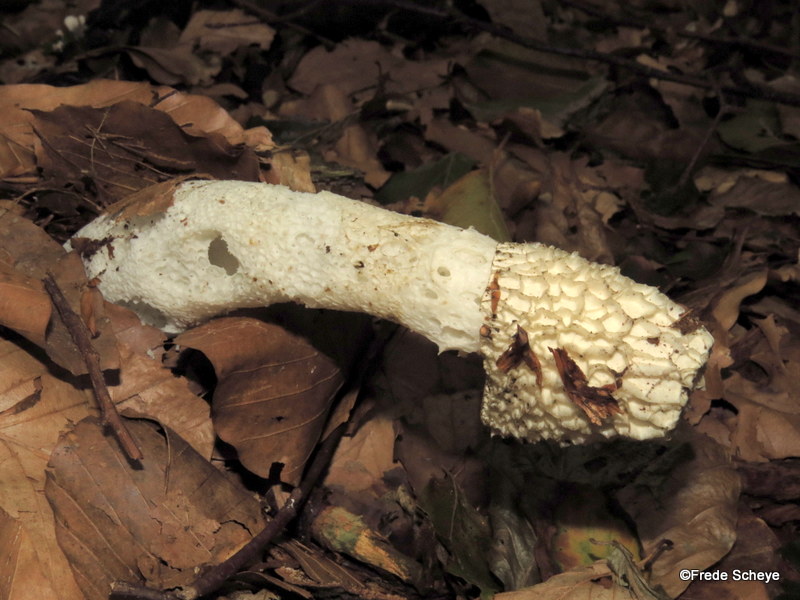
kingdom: Fungi
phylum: Basidiomycota
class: Agaricomycetes
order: Phallales
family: Phallaceae
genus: Phallus
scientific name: Phallus impudicus
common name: almindelig stinksvamp
